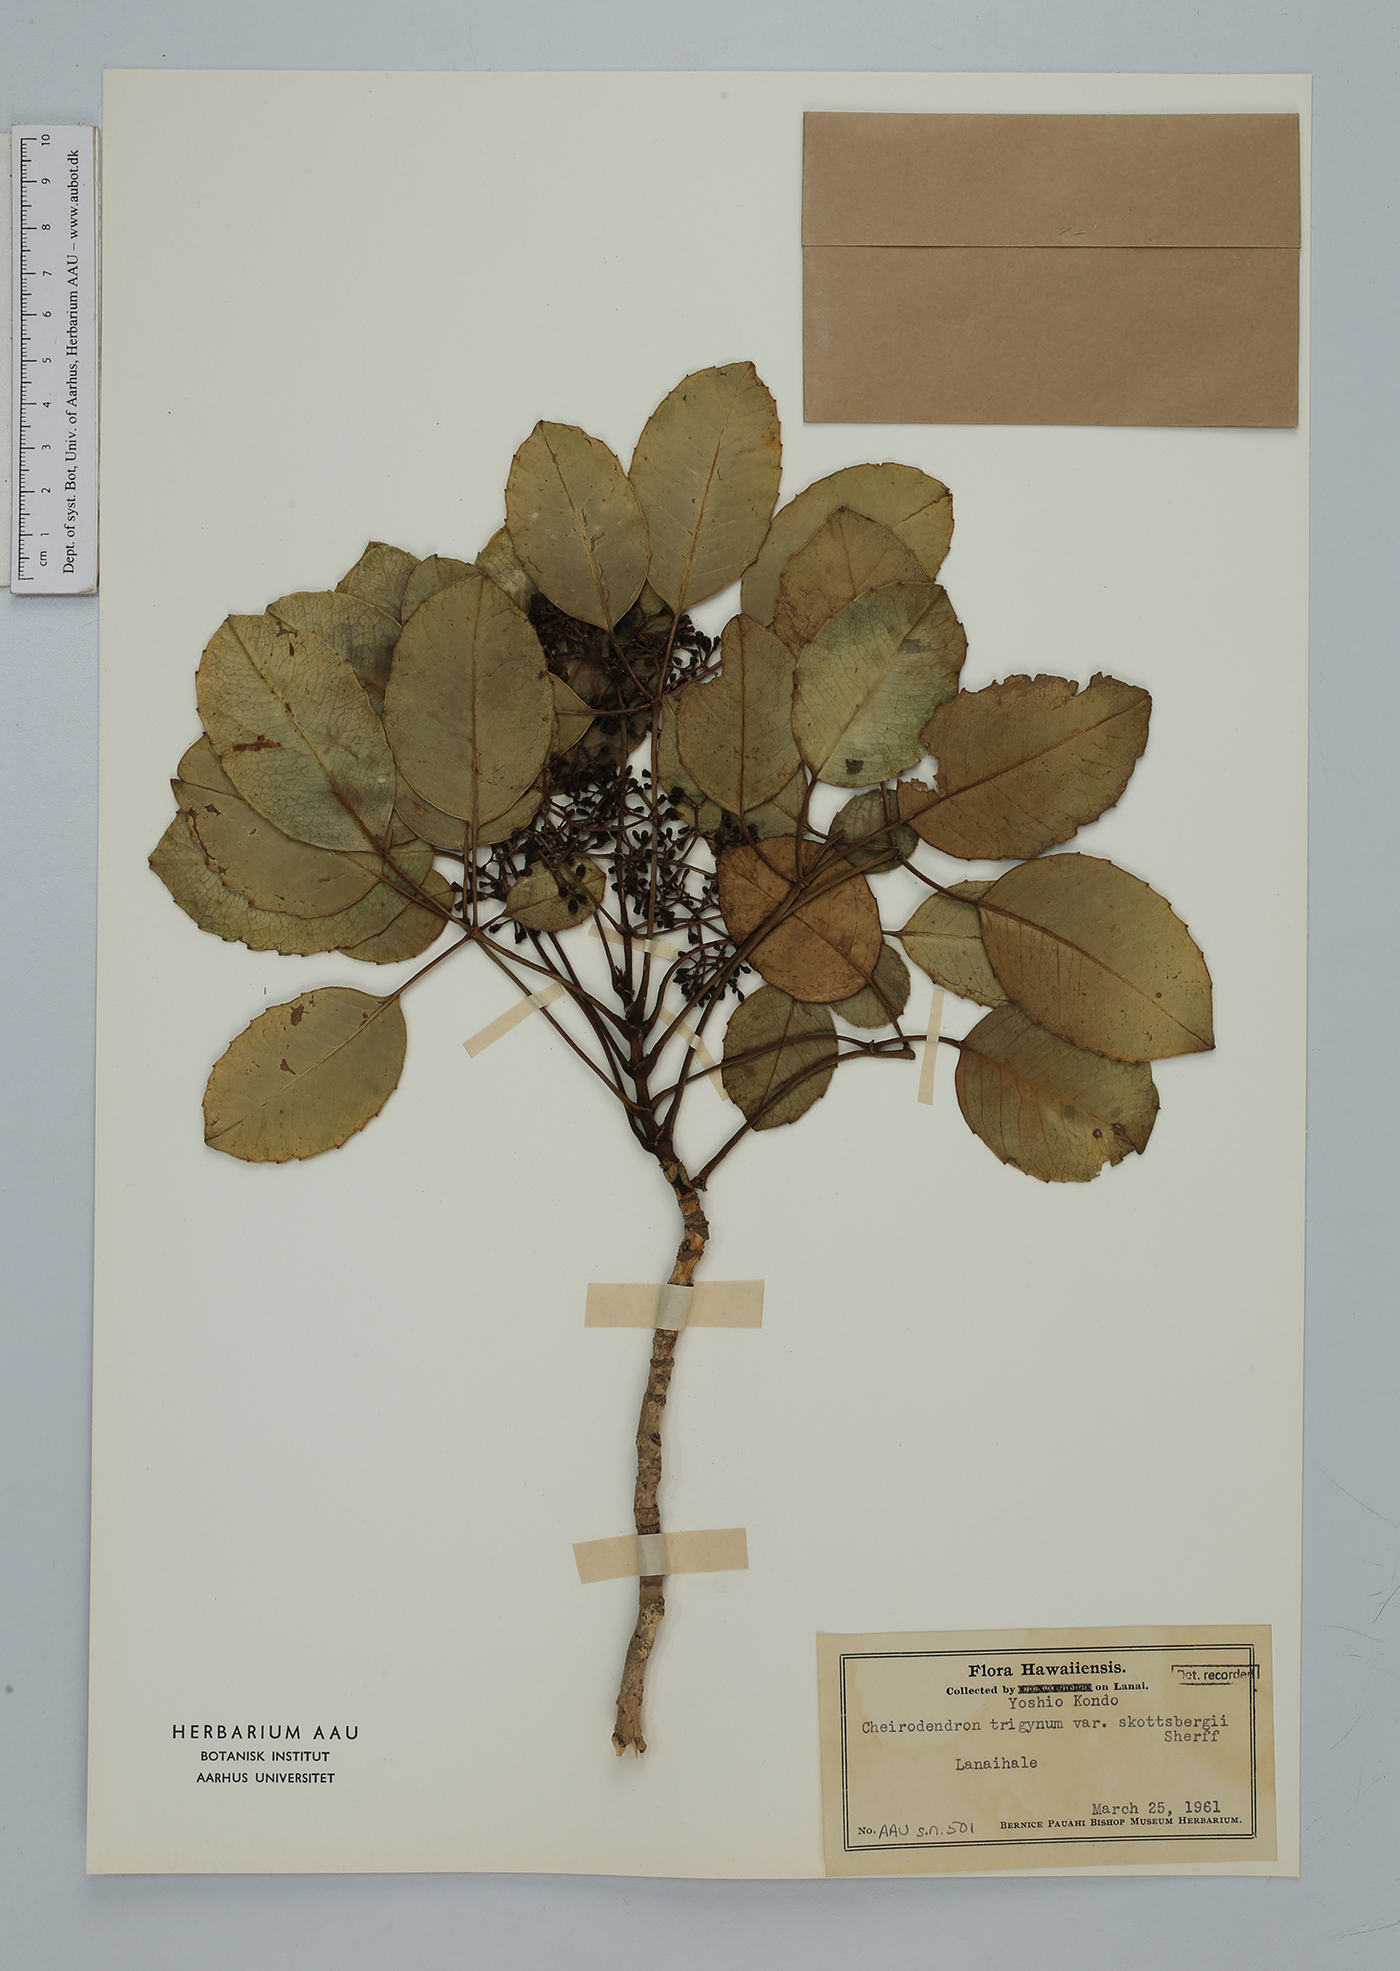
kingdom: Plantae
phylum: Tracheophyta
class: Magnoliopsida
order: Apiales
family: Araliaceae
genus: Cheirodendron
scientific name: Cheirodendron trigynum
